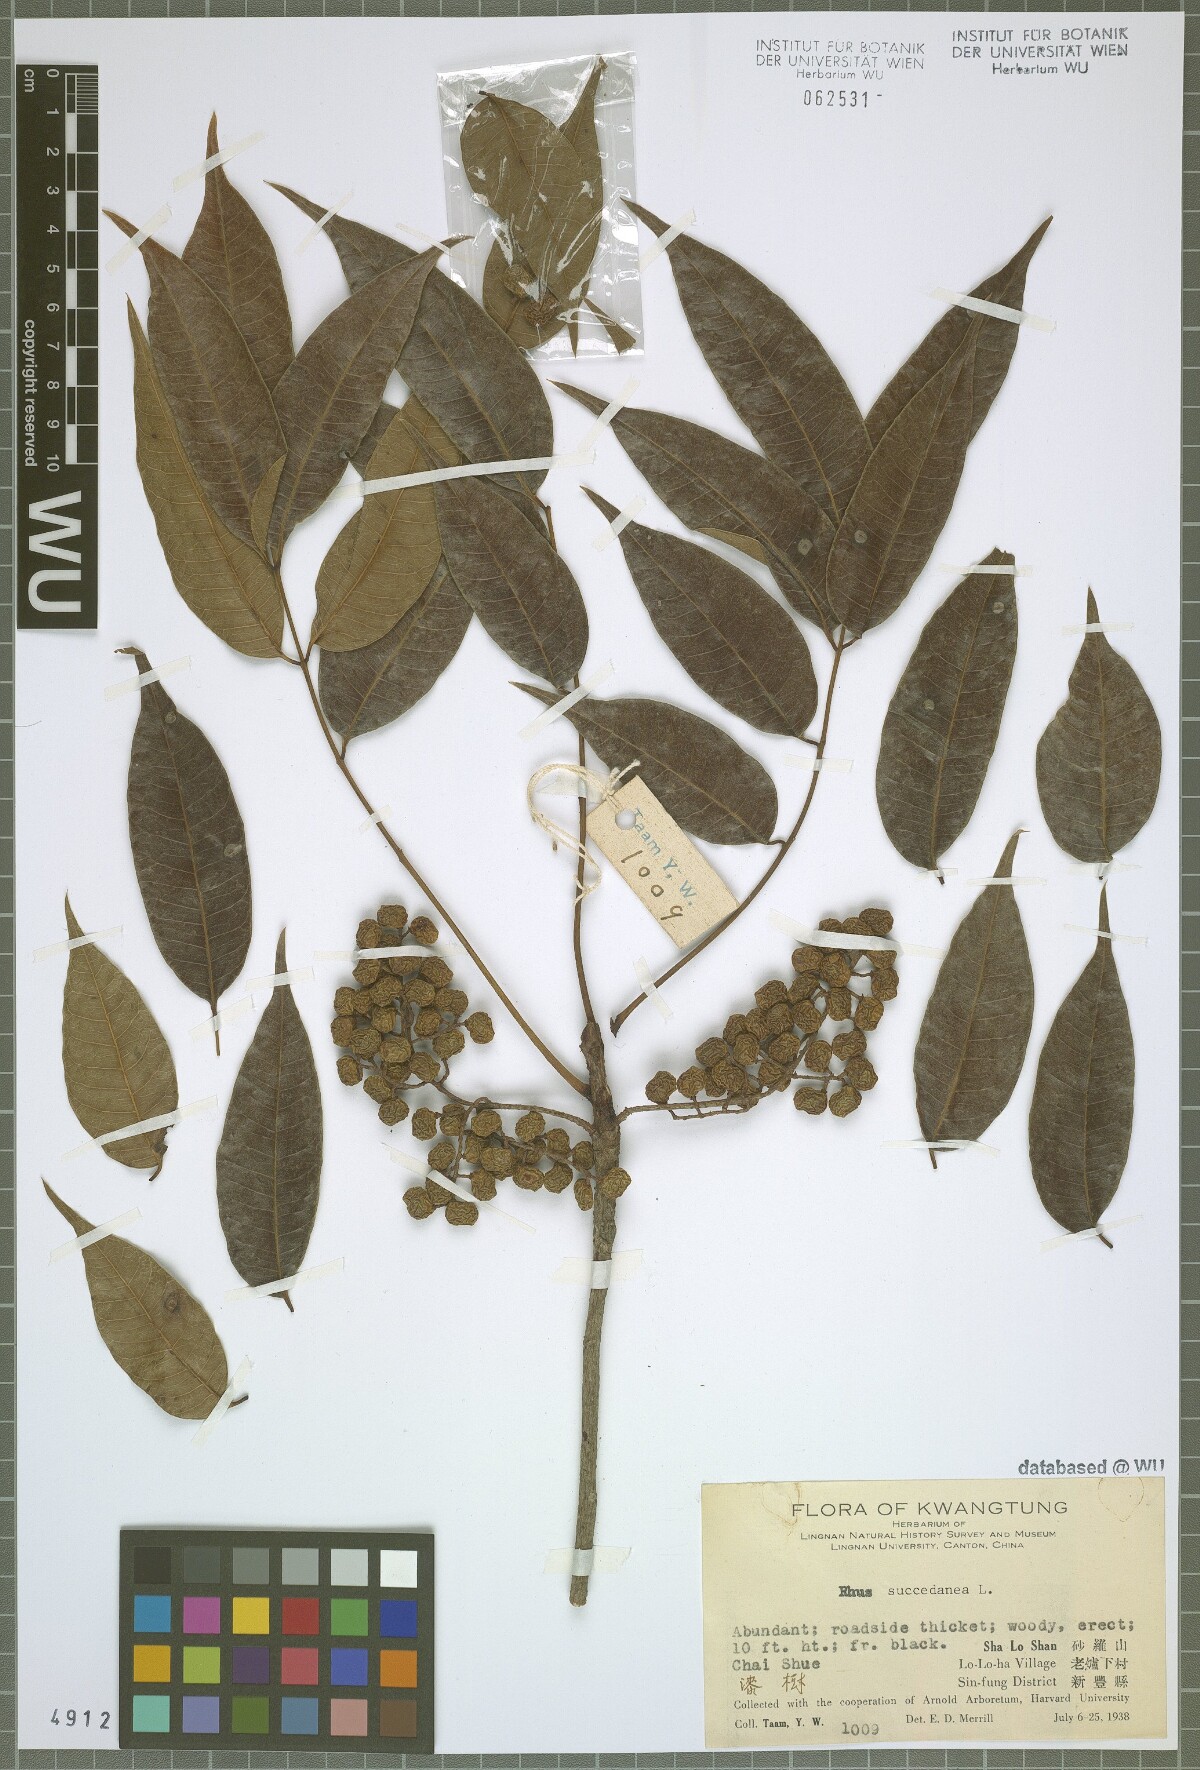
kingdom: Plantae
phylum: Tracheophyta
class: Magnoliopsida
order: Sapindales
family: Anacardiaceae
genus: Toxicodendron
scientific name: Toxicodendron succedaneum
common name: Wax tree
